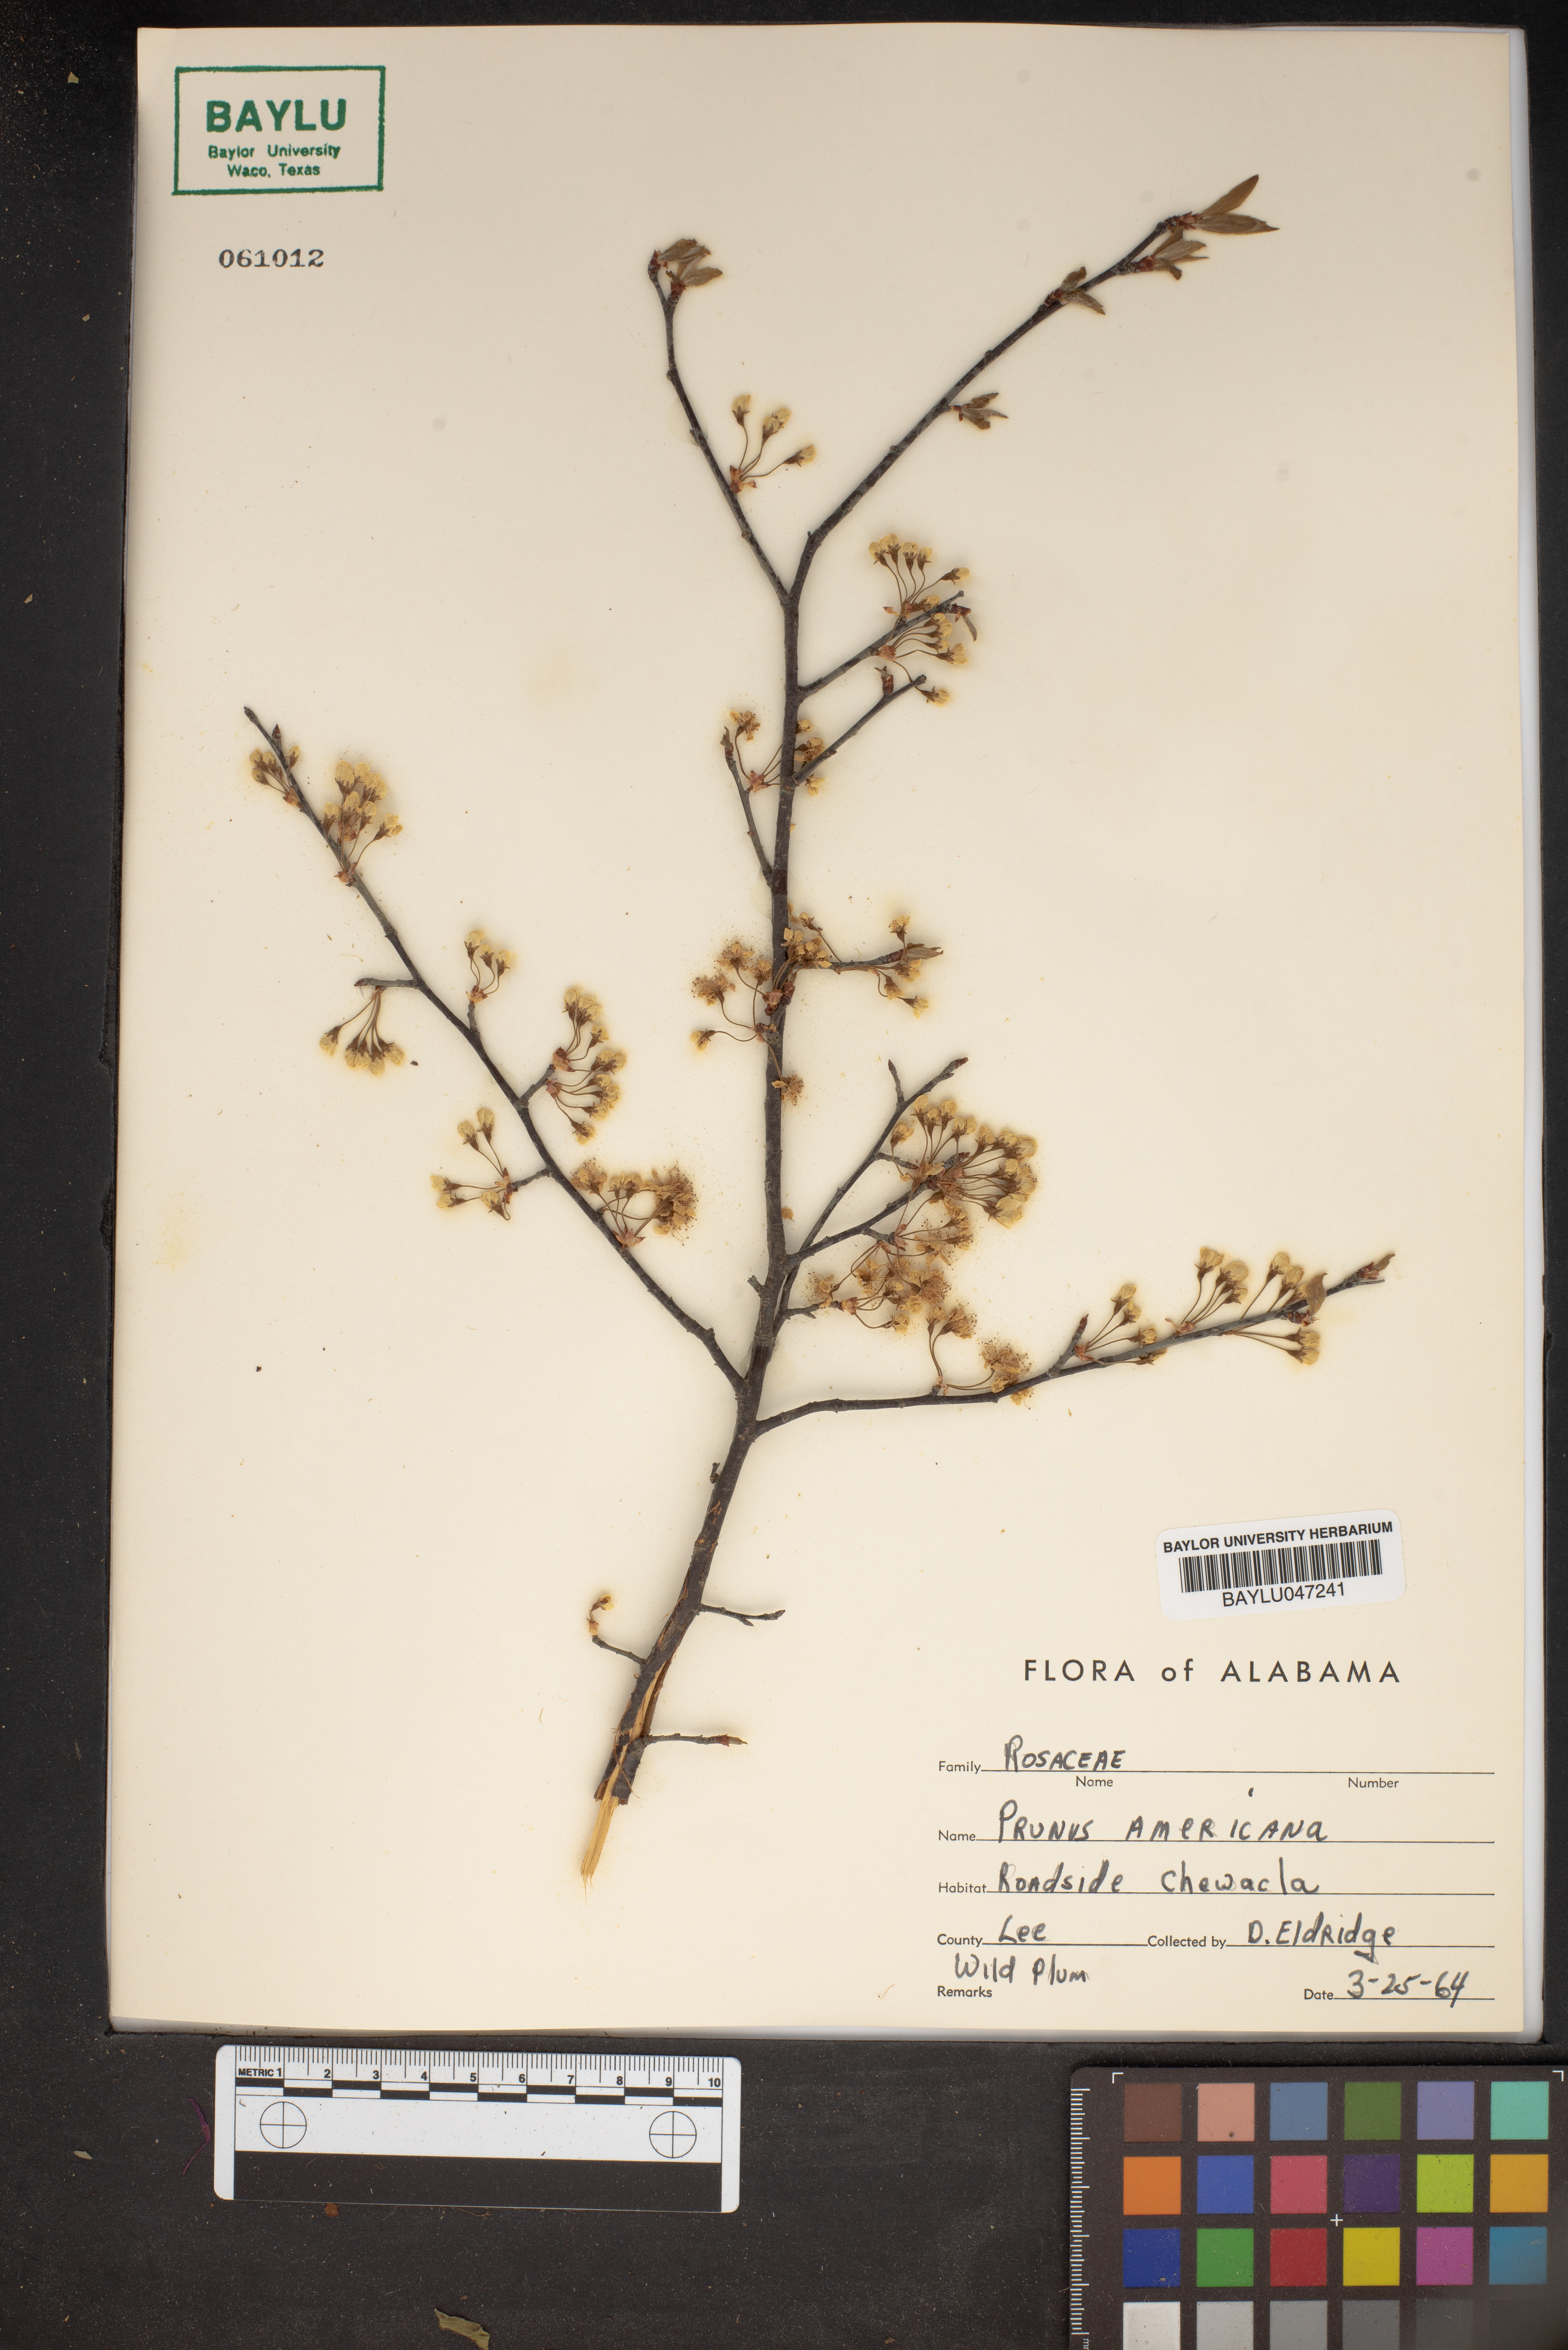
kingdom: Plantae
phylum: Tracheophyta
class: Magnoliopsida
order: Rosales
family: Rosaceae
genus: Prunus
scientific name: Prunus americana
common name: American plum
